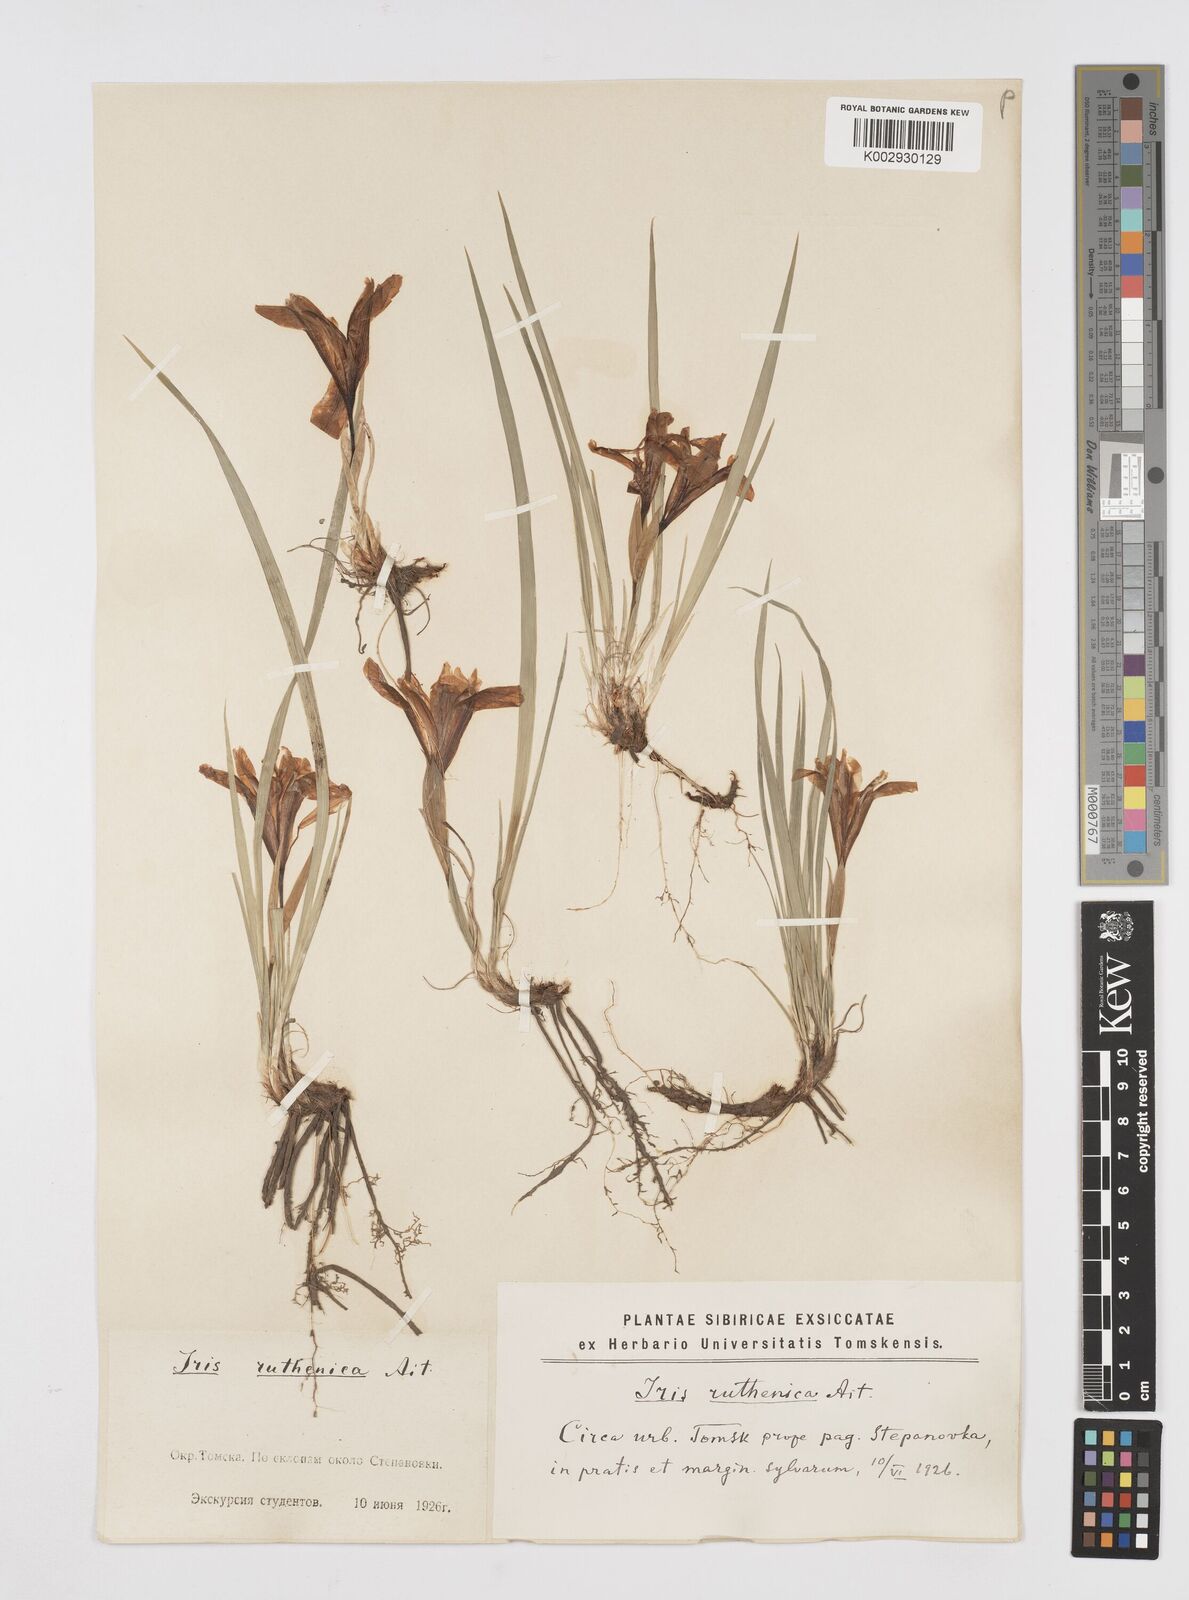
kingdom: Plantae
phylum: Tracheophyta
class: Liliopsida
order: Asparagales
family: Iridaceae
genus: Iris
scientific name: Iris ruthenica
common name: Purple-bract iris
